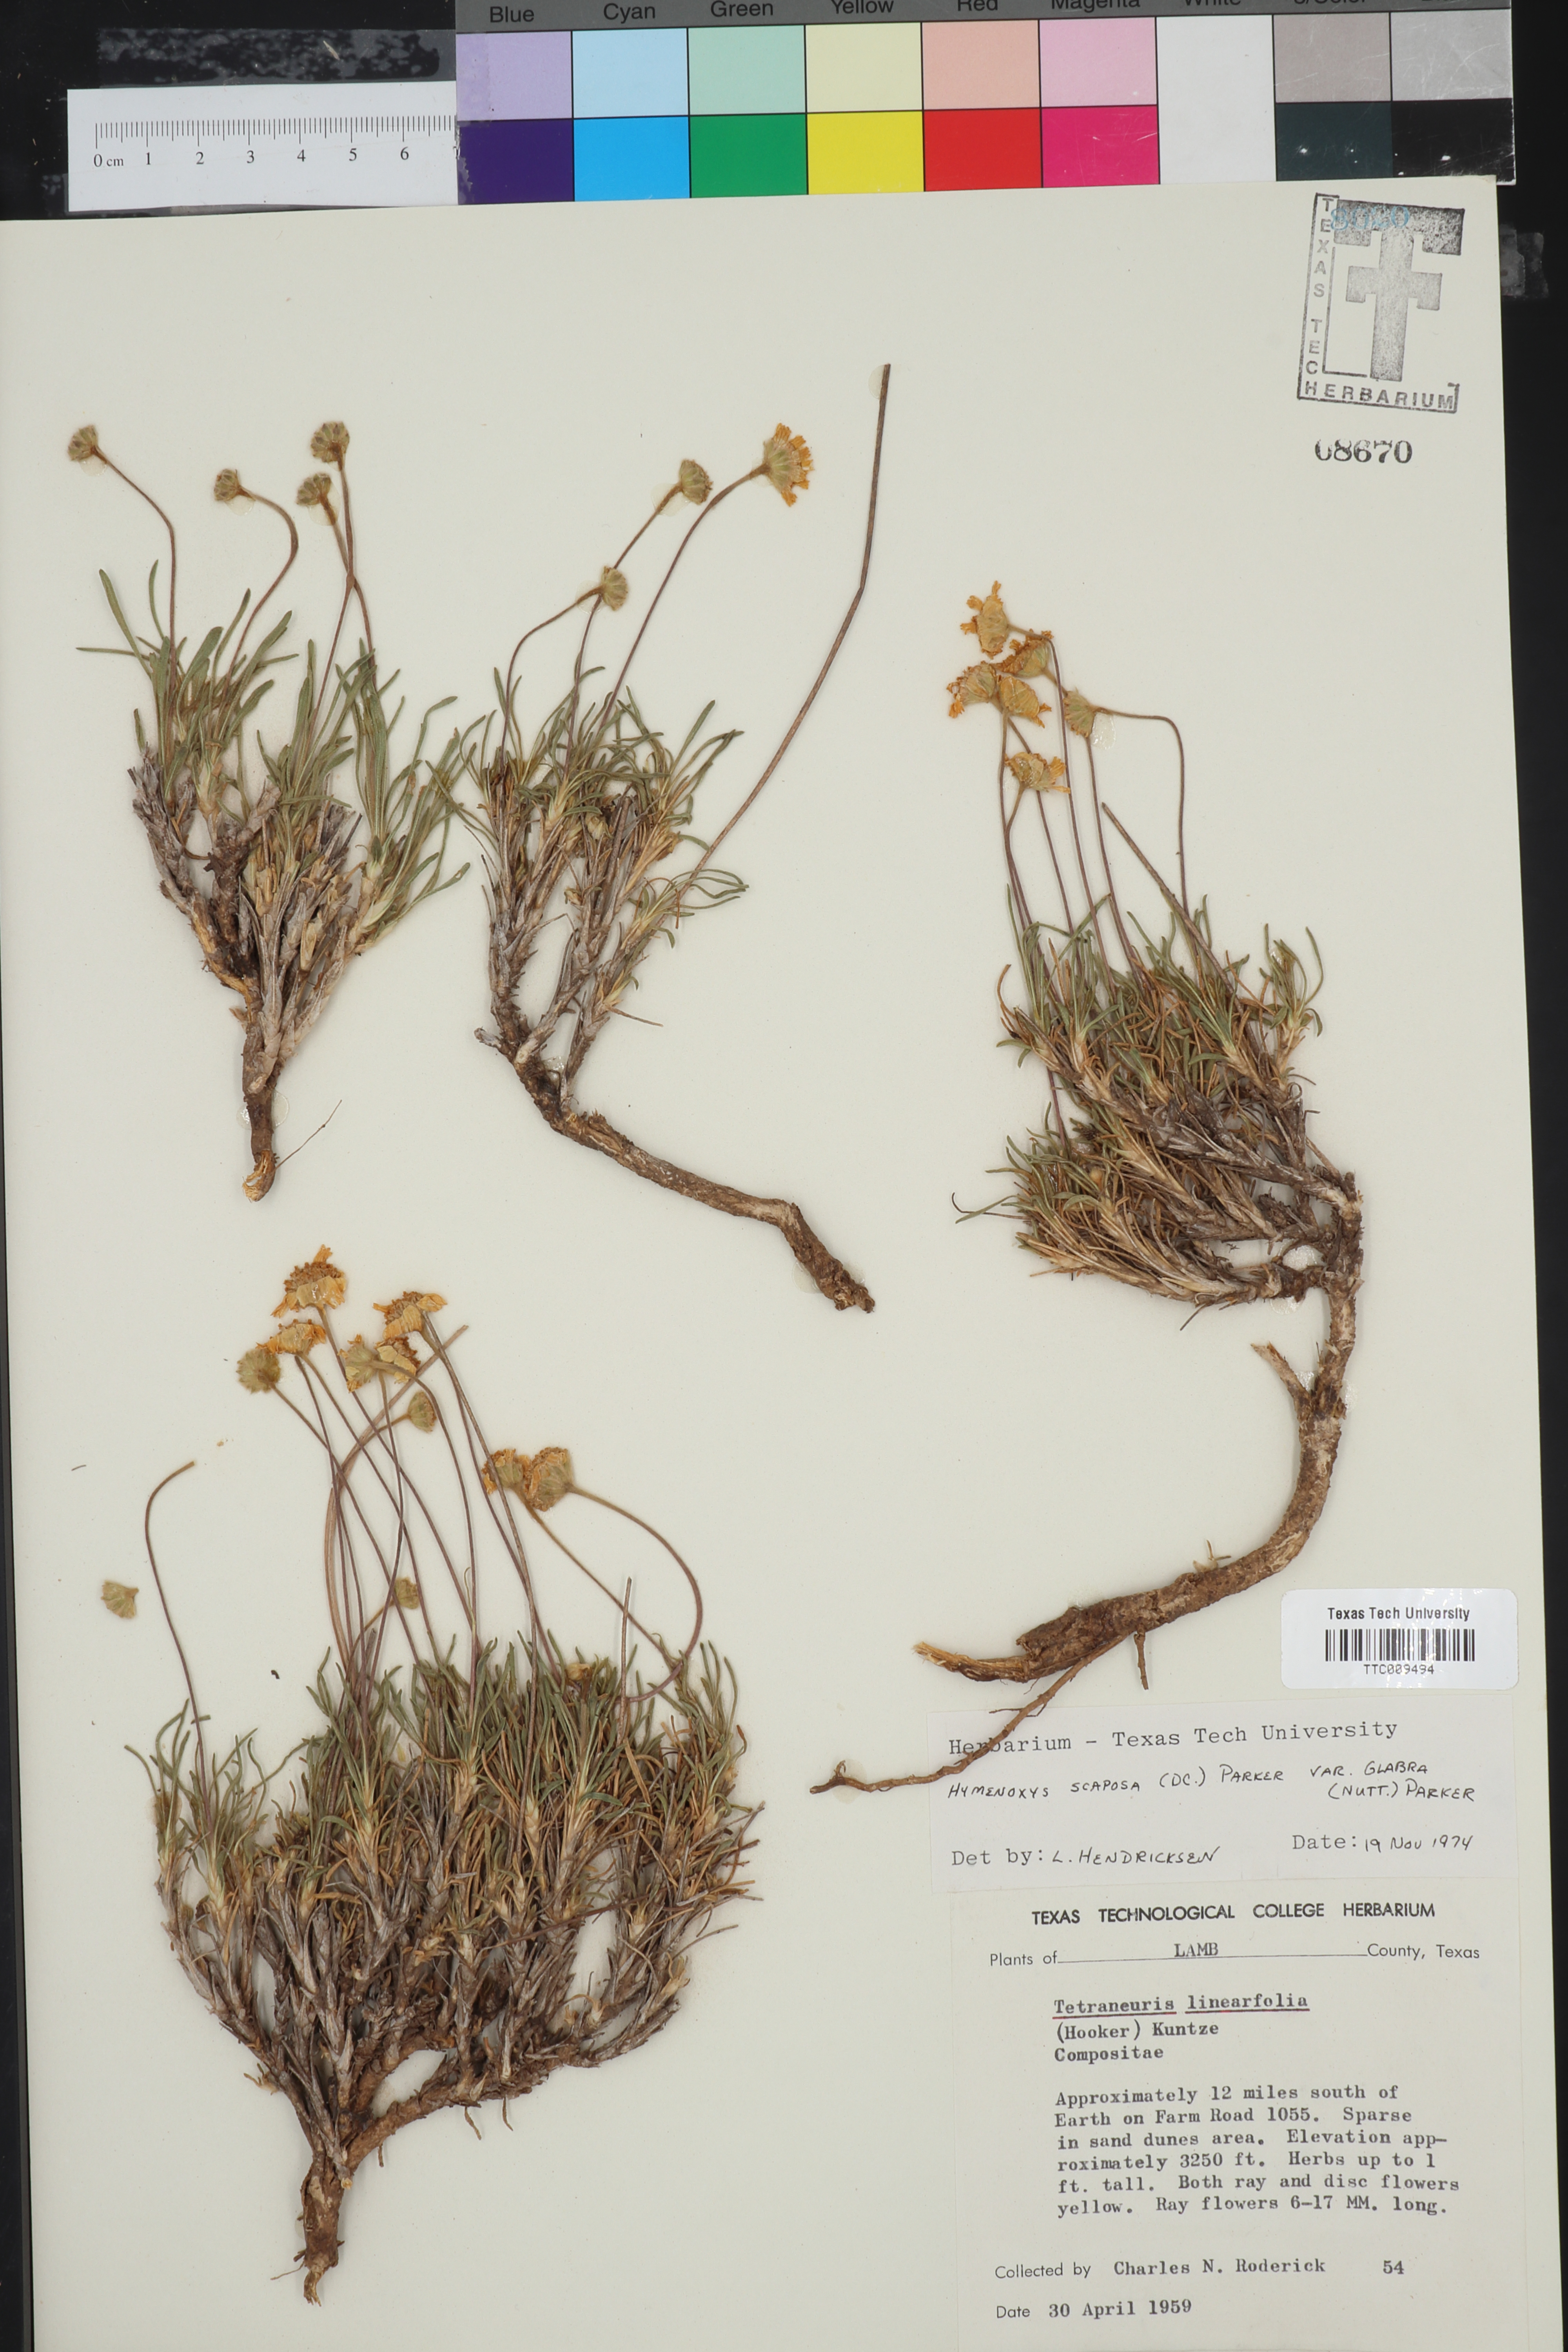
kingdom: Plantae
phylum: Tracheophyta
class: Magnoliopsida
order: Asterales
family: Asteraceae
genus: Tetraneuris
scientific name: Tetraneuris scaposa
